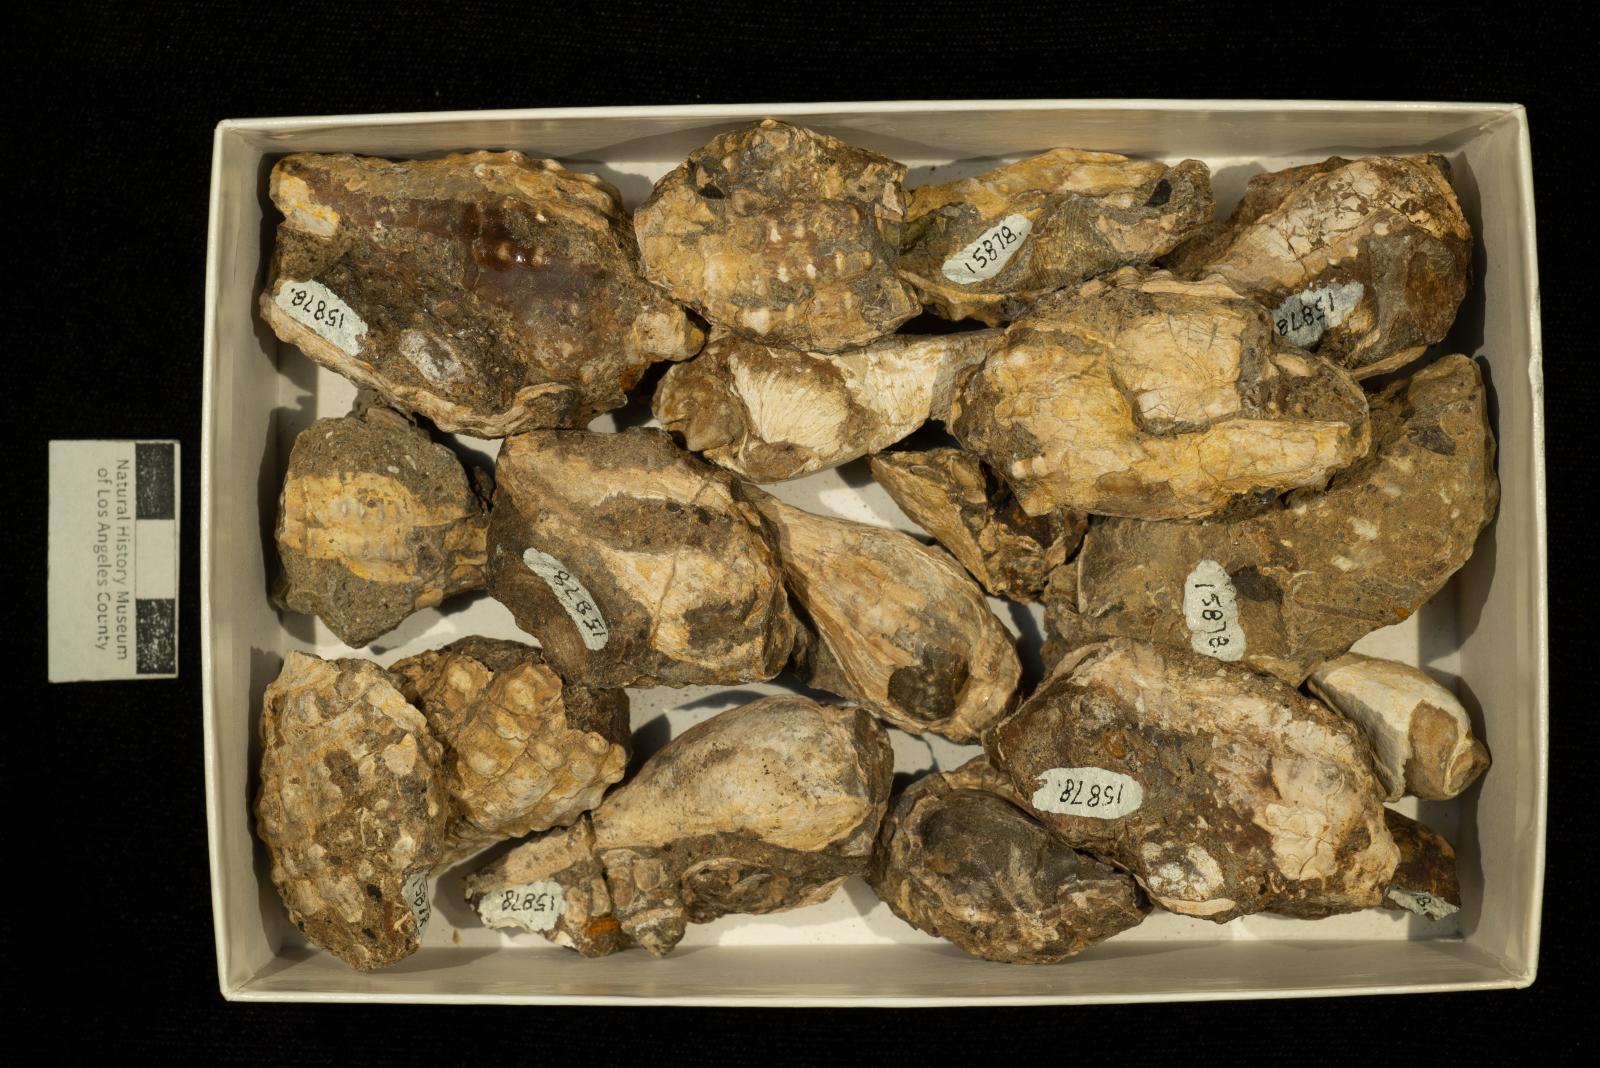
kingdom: Animalia
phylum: Mollusca
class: Gastropoda
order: Neogastropoda
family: Pholidotomidae
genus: Volutoderma
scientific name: Volutoderma santana
